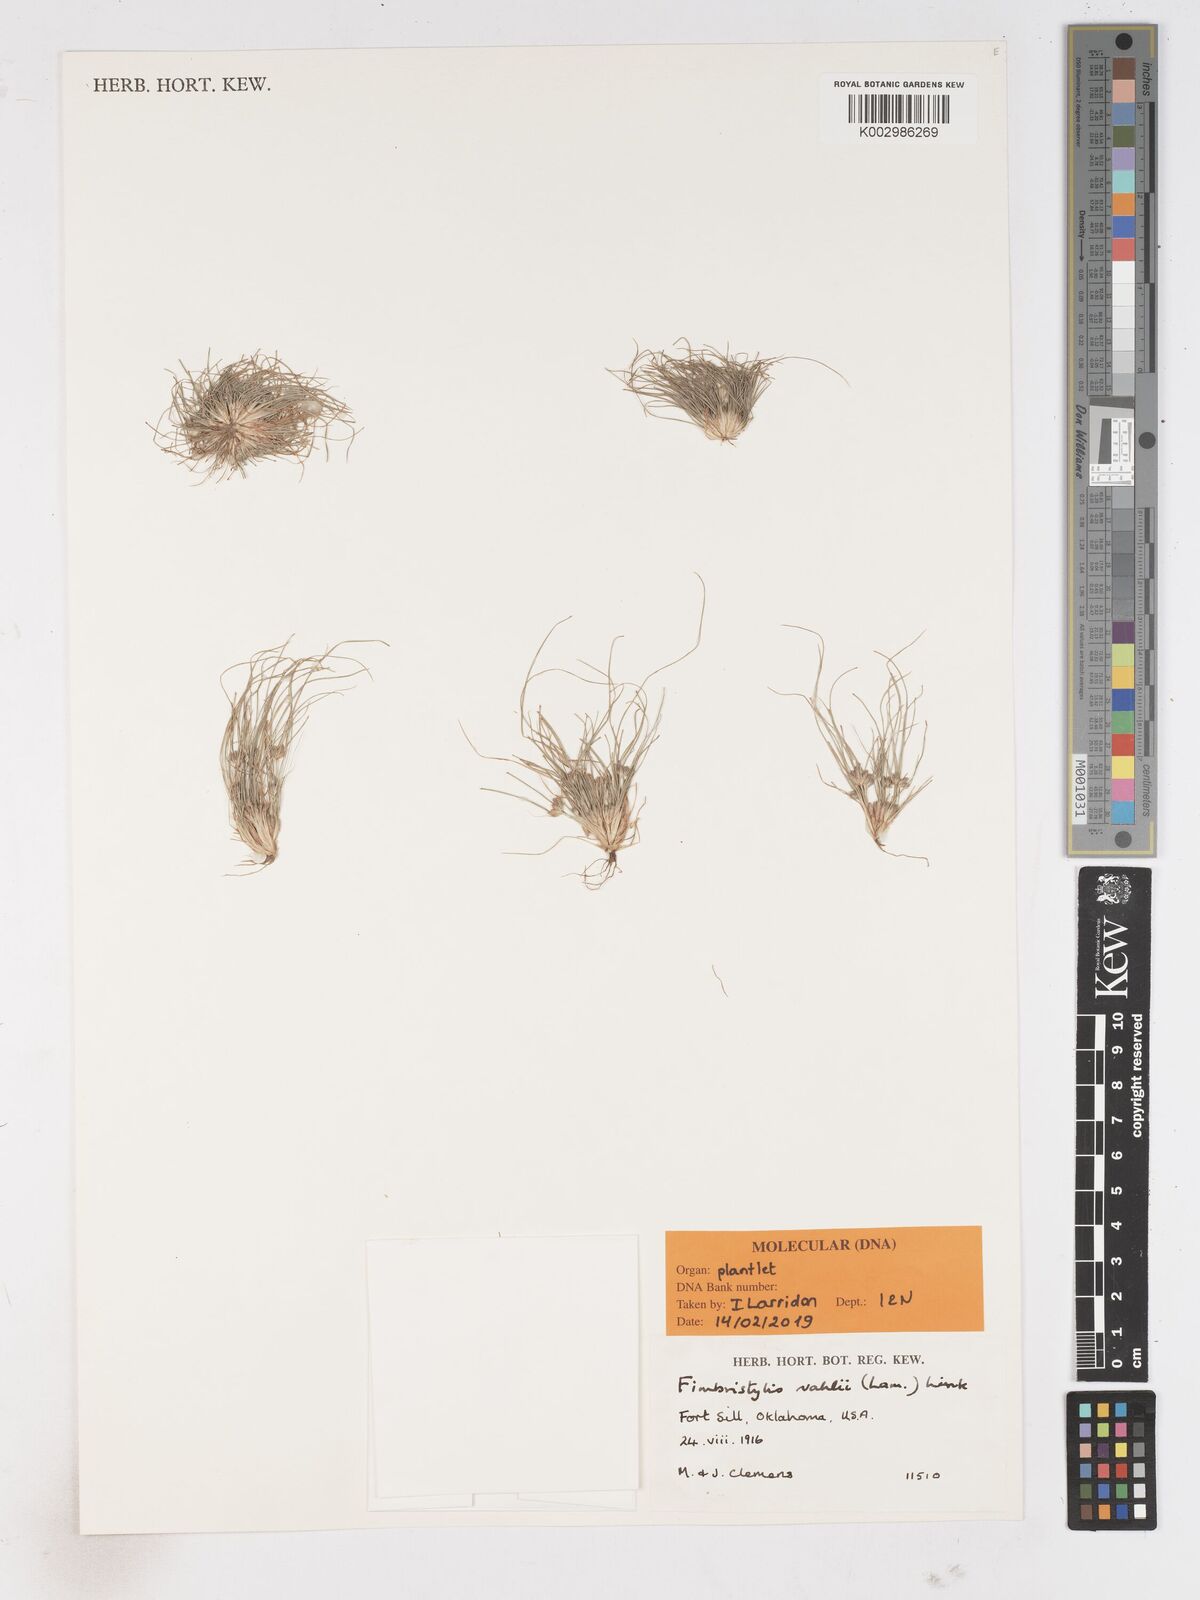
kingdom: Plantae
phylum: Tracheophyta
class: Liliopsida
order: Poales
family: Cyperaceae
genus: Fimbristylis
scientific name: Fimbristylis vahlii
